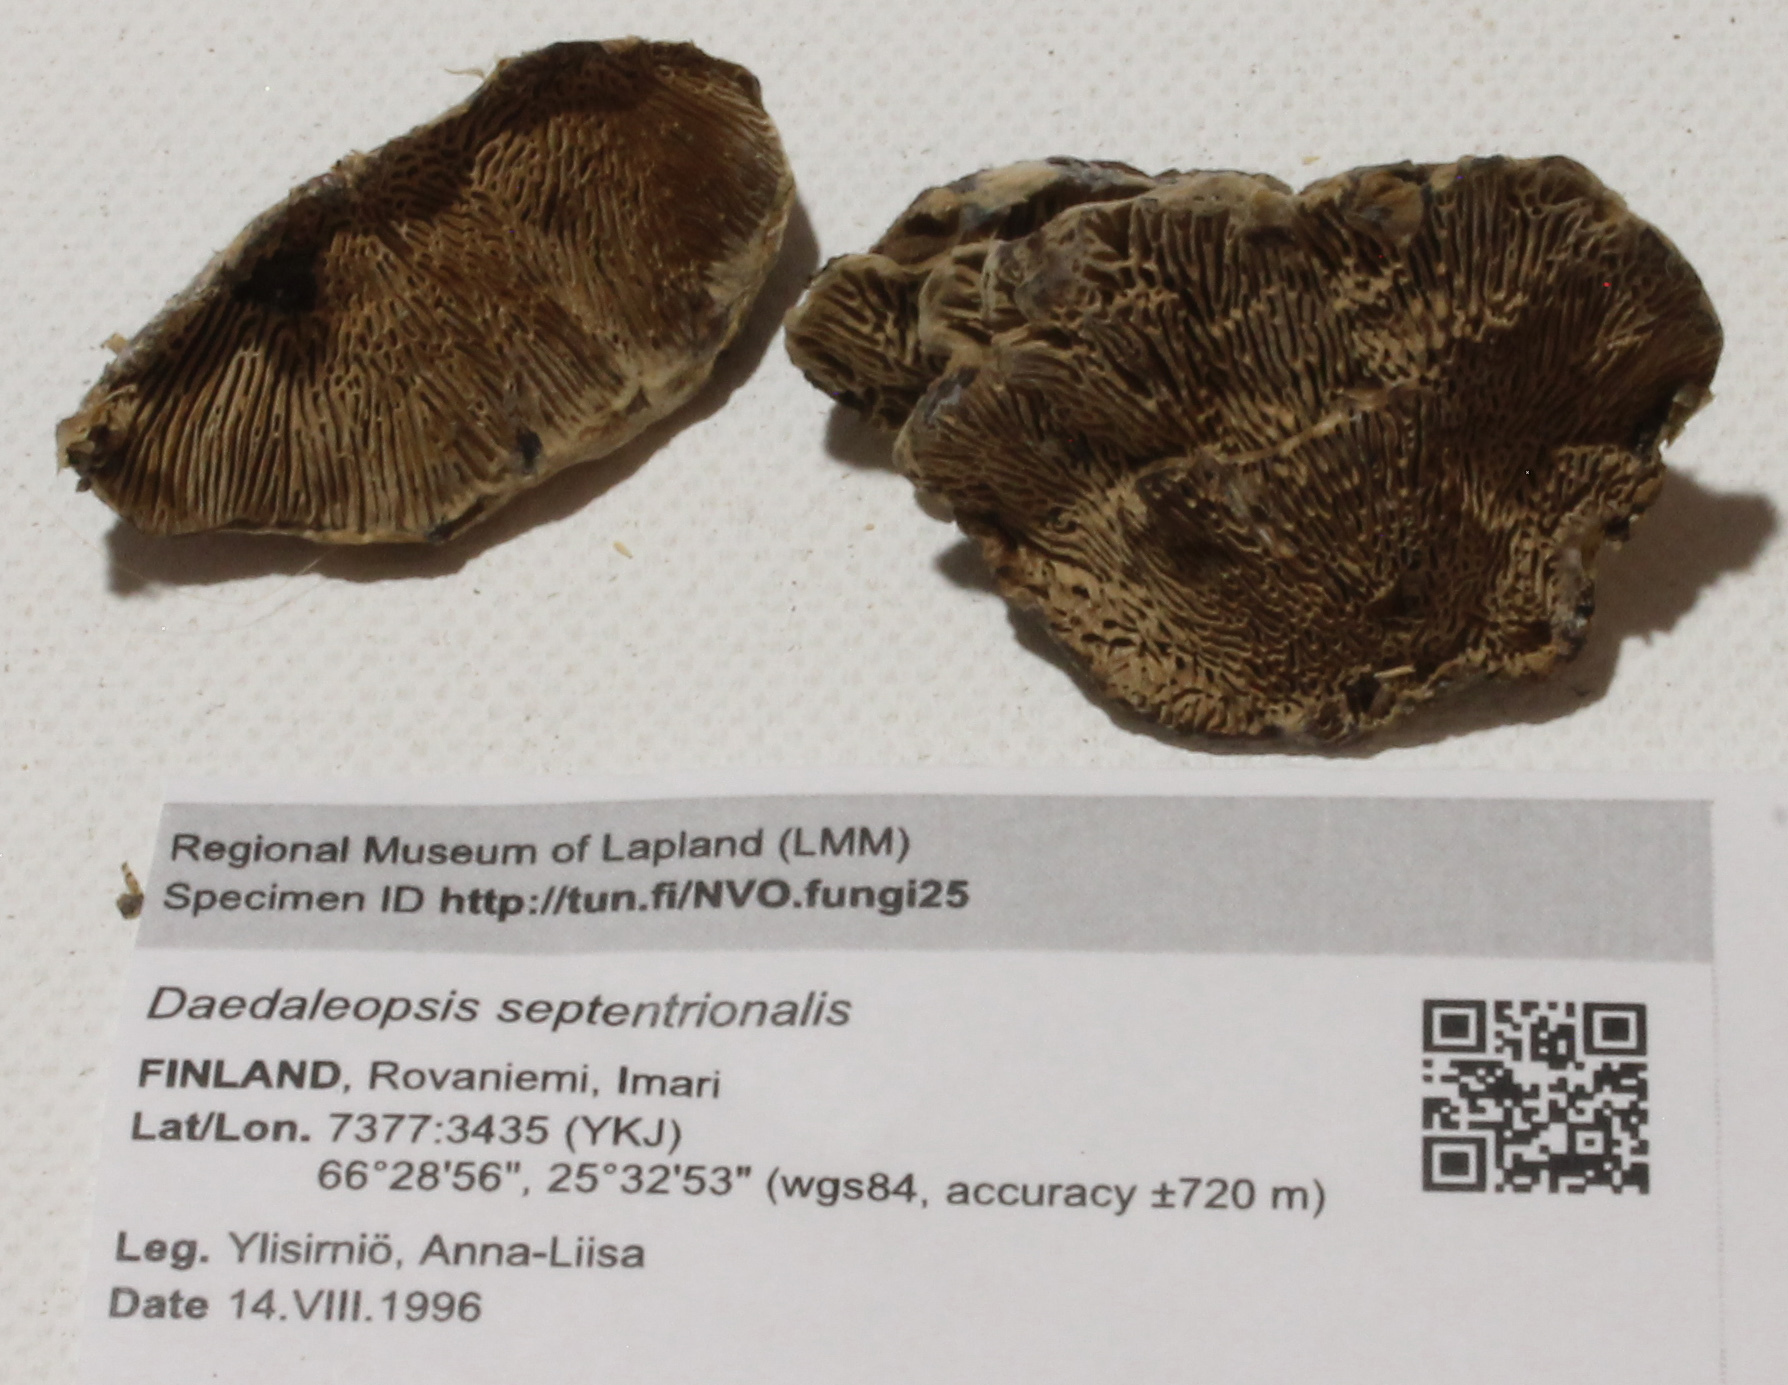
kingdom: Fungi
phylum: Basidiomycota
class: Agaricomycetes
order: Polyporales
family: Polyporaceae
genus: Daedaleopsis
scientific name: Daedaleopsis septentrionalis
